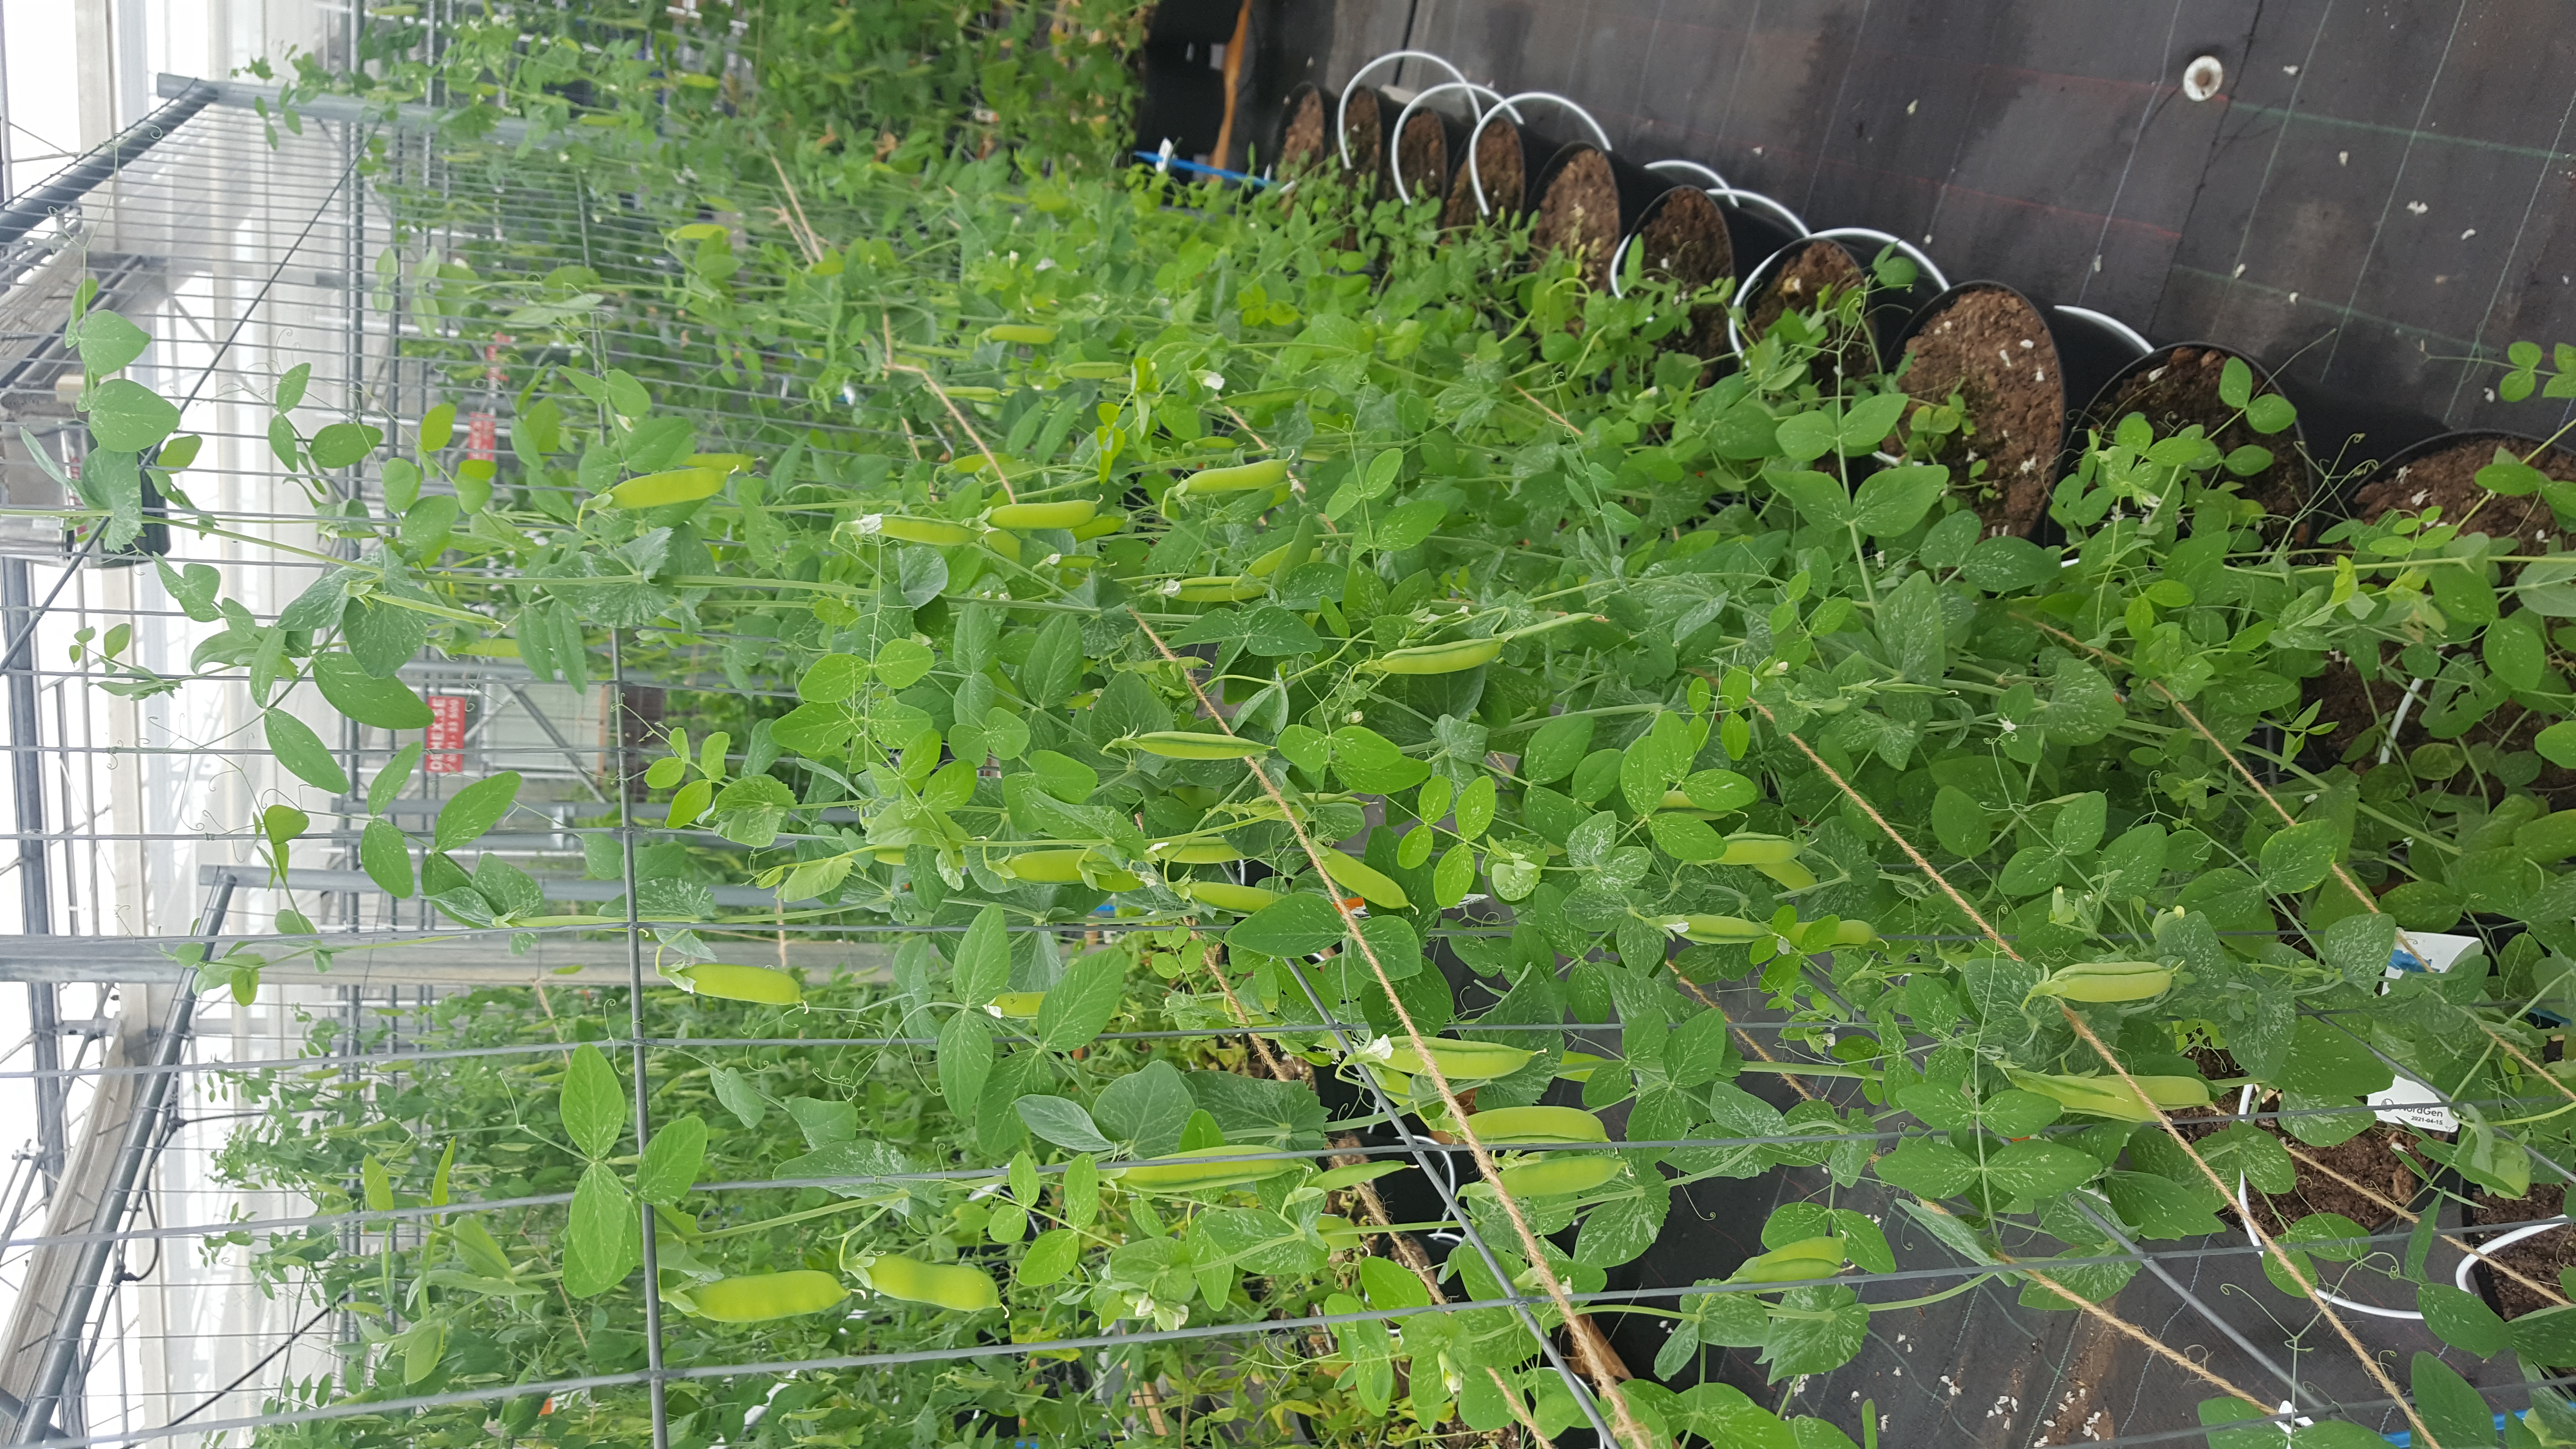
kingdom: Plantae
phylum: Tracheophyta
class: Magnoliopsida
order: Fabales
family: Fabaceae
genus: Lathyrus
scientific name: Lathyrus oleraceus
